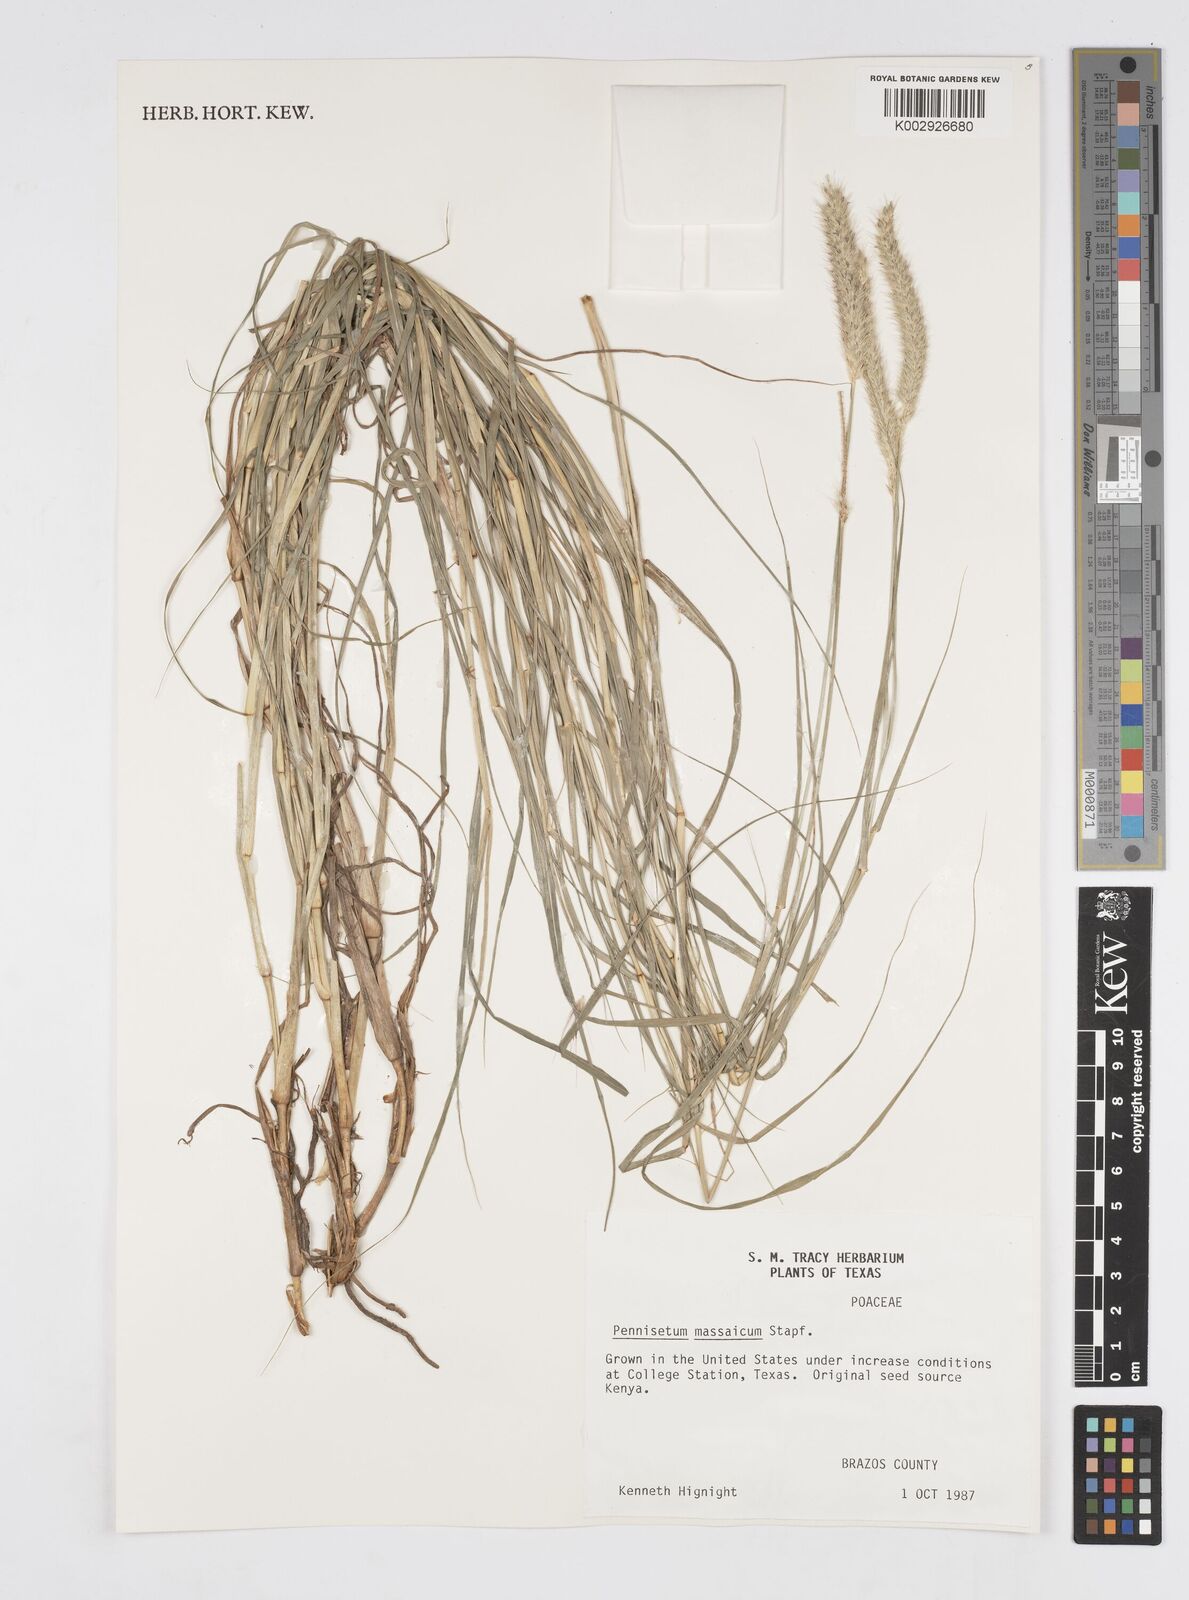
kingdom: Plantae
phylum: Tracheophyta
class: Liliopsida
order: Poales
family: Poaceae
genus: Cenchrus
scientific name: Cenchrus massaicus
